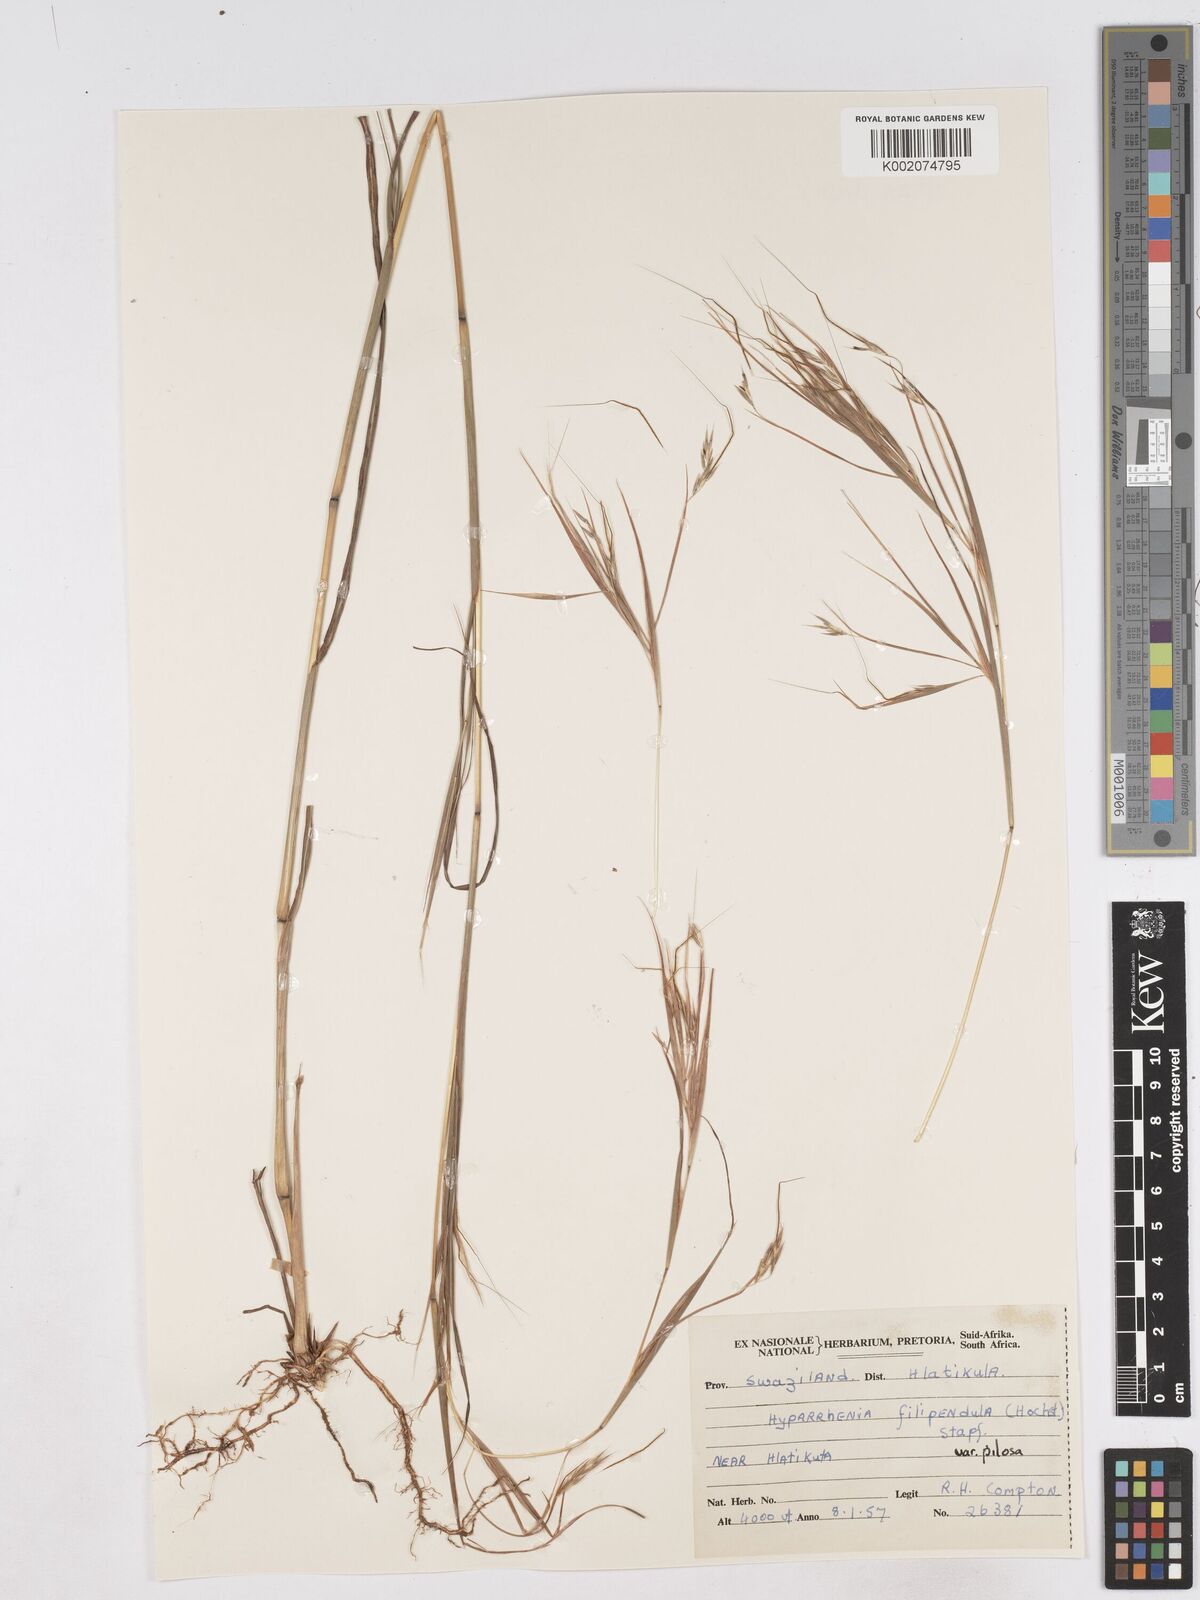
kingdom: Plantae
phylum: Tracheophyta
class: Liliopsida
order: Poales
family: Poaceae
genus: Hyparrhenia
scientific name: Hyparrhenia filipendula
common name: Tambookie grass
